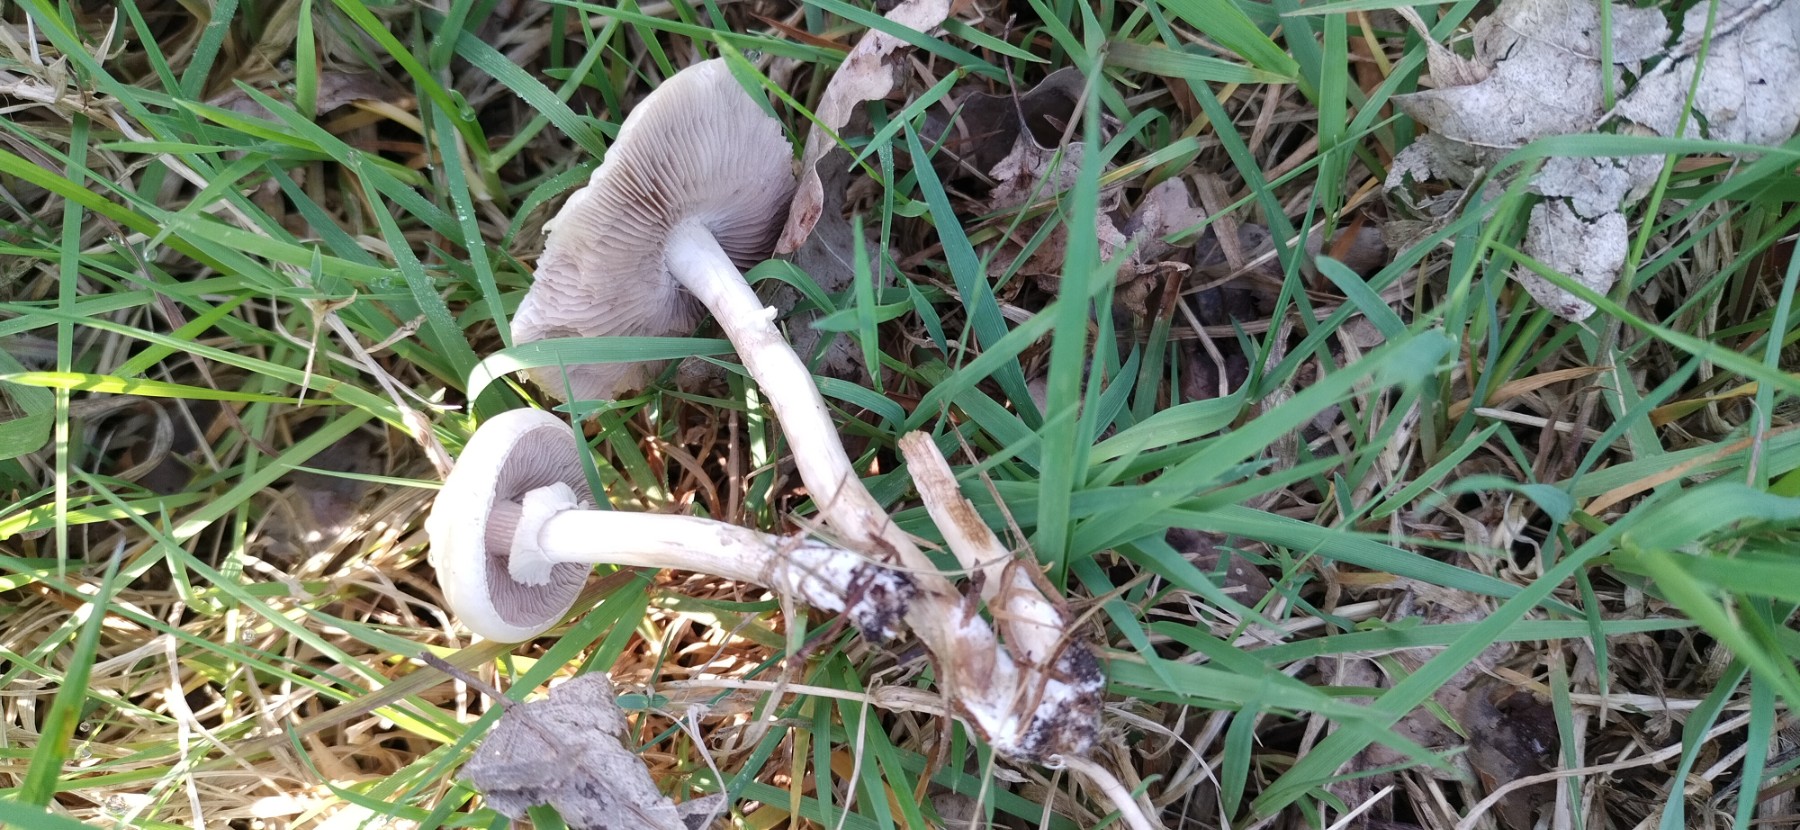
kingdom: Fungi
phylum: Basidiomycota
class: Agaricomycetes
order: Agaricales
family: Strophariaceae
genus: Agrocybe
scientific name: Agrocybe praecox
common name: tidlig agerhat
